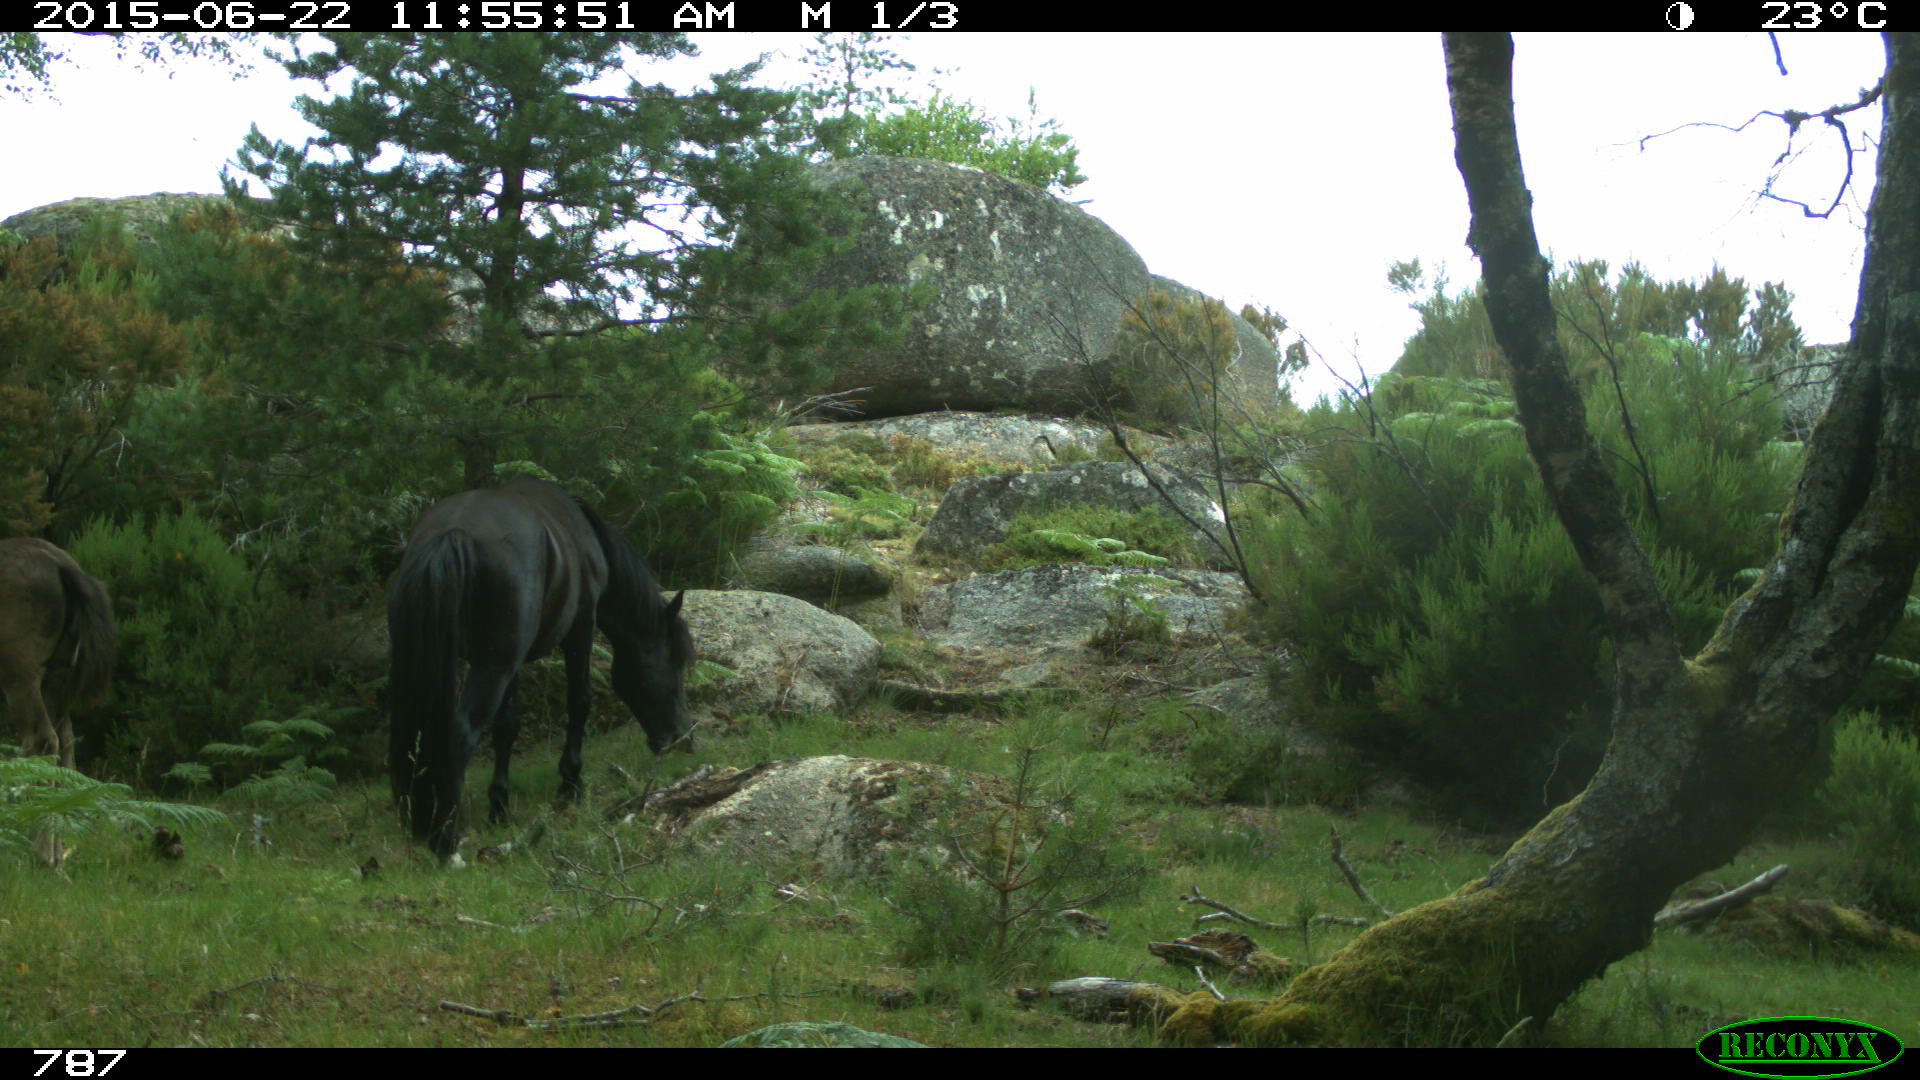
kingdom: Animalia
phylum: Chordata
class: Mammalia
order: Perissodactyla
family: Equidae
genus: Equus
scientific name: Equus caballus
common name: Horse
